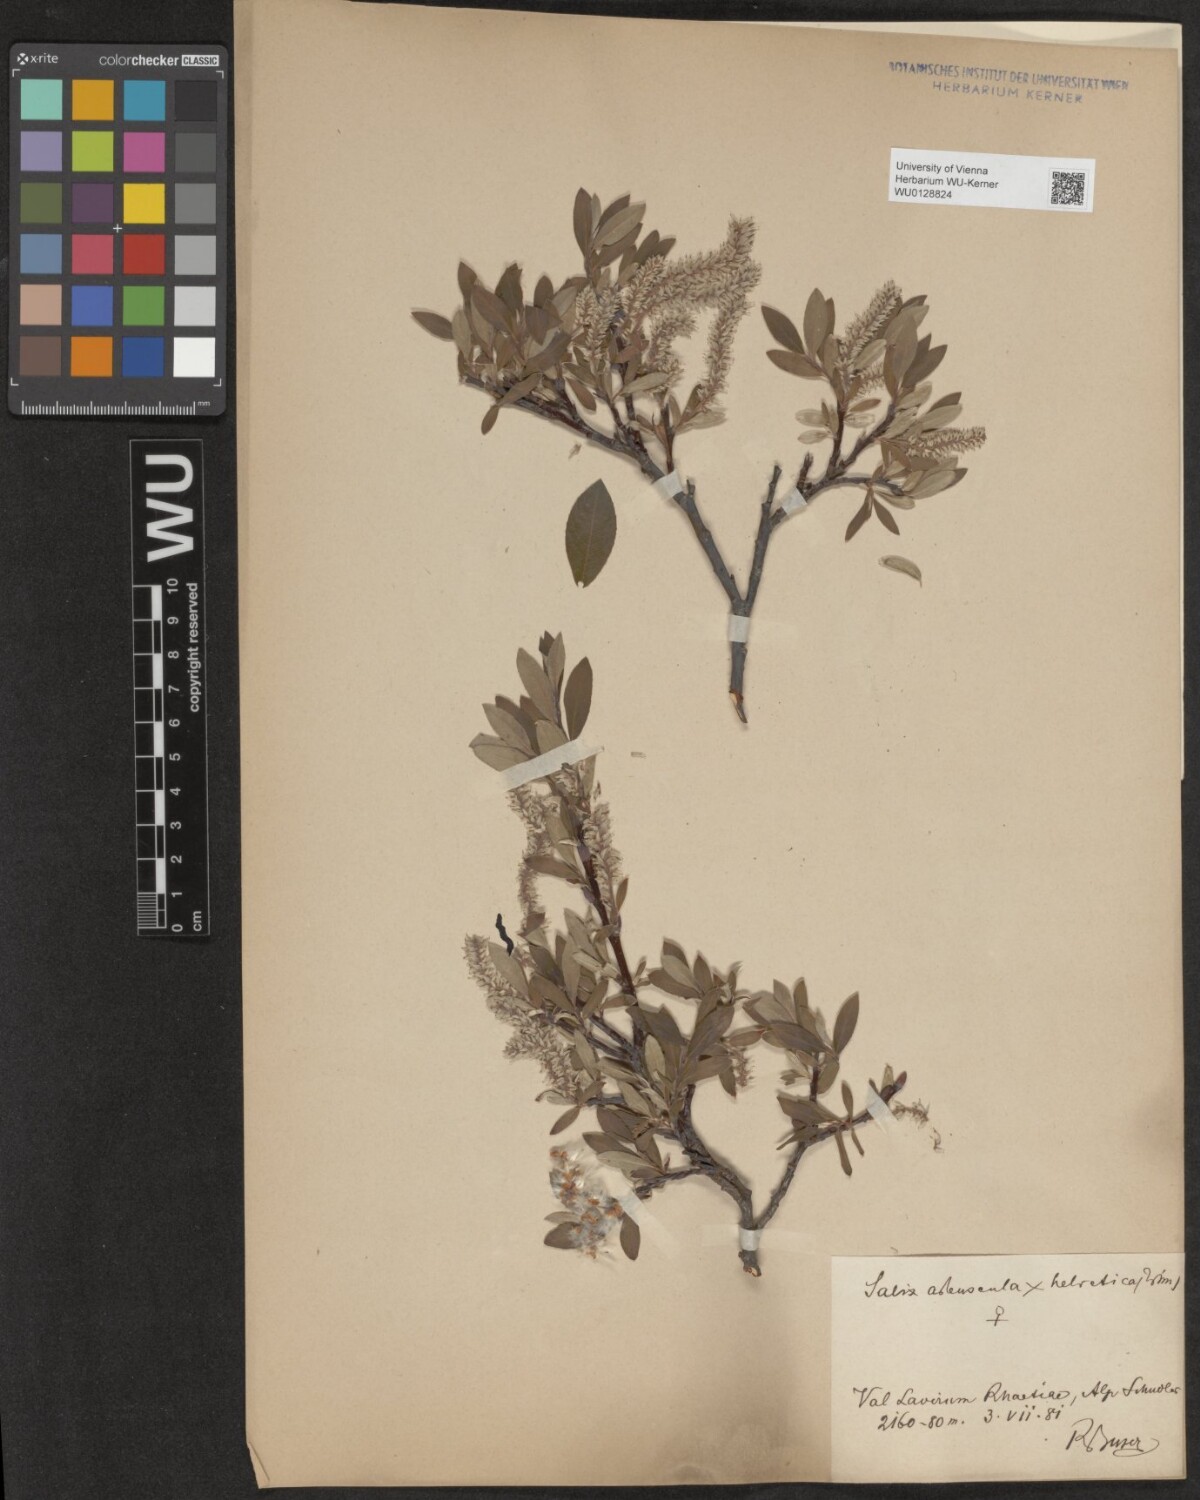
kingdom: Plantae
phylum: Tracheophyta
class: Magnoliopsida
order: Malpighiales
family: Salicaceae
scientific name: Salicaceae
